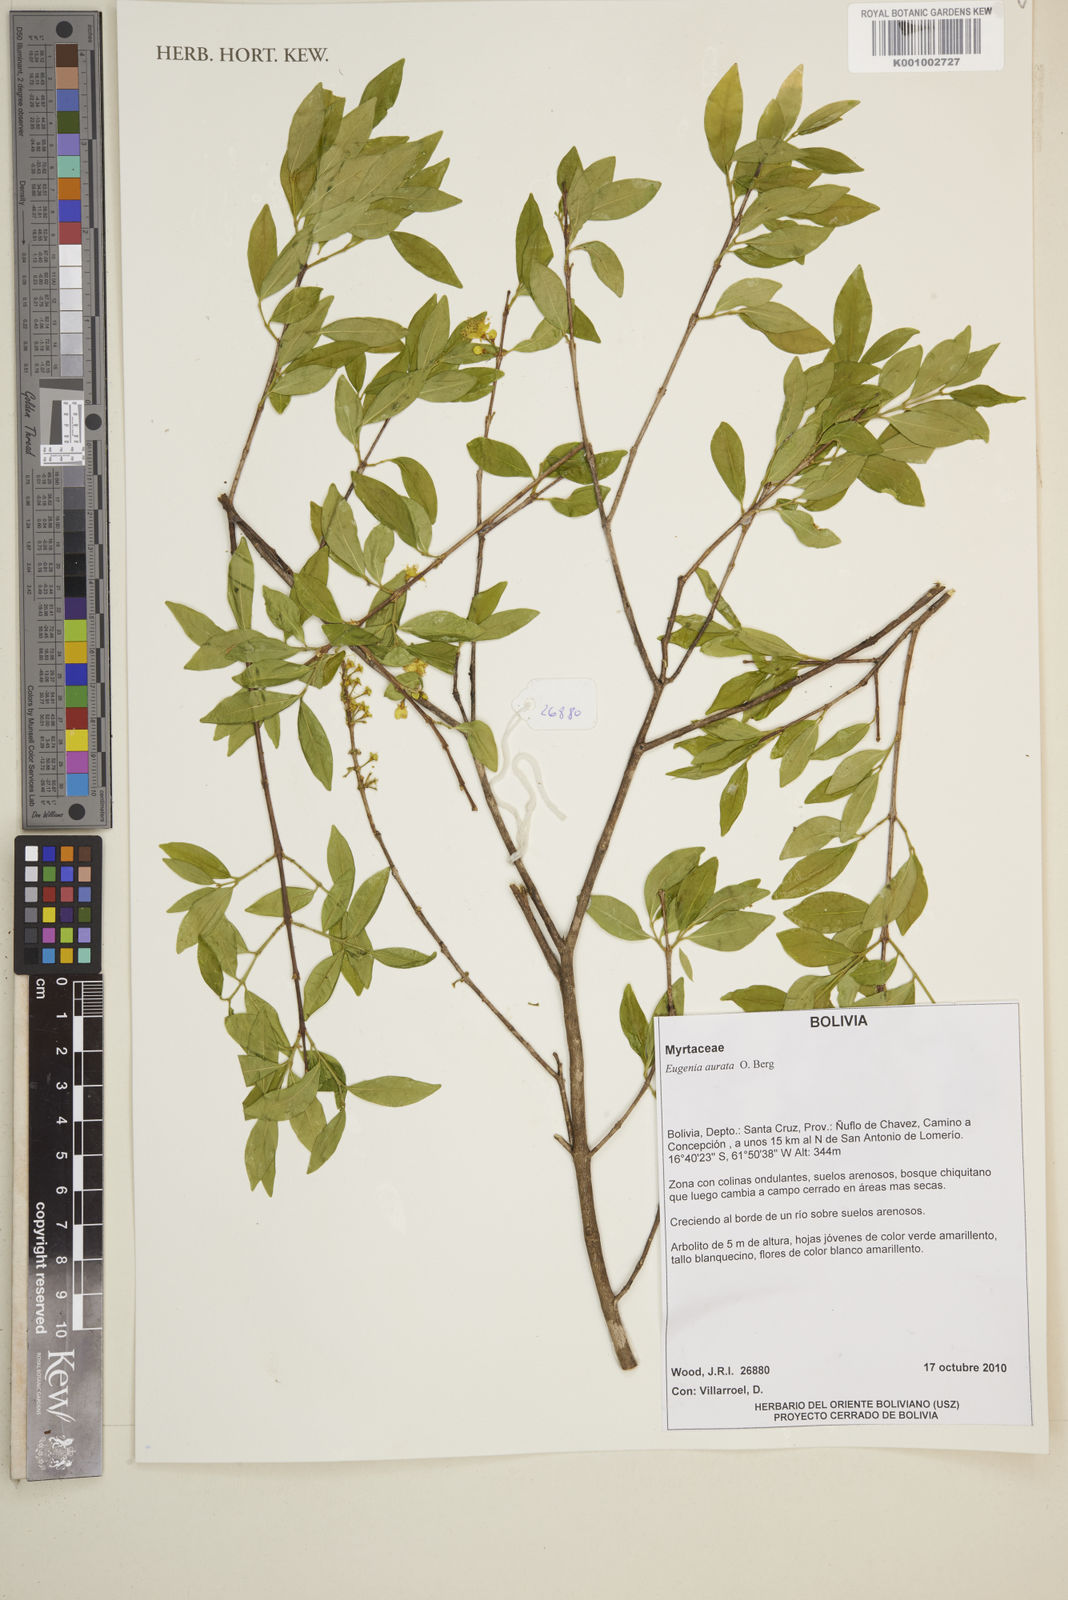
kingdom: Plantae
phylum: Tracheophyta
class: Magnoliopsida
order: Myrtales
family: Myrtaceae
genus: Eugenia
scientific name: Eugenia aurata
